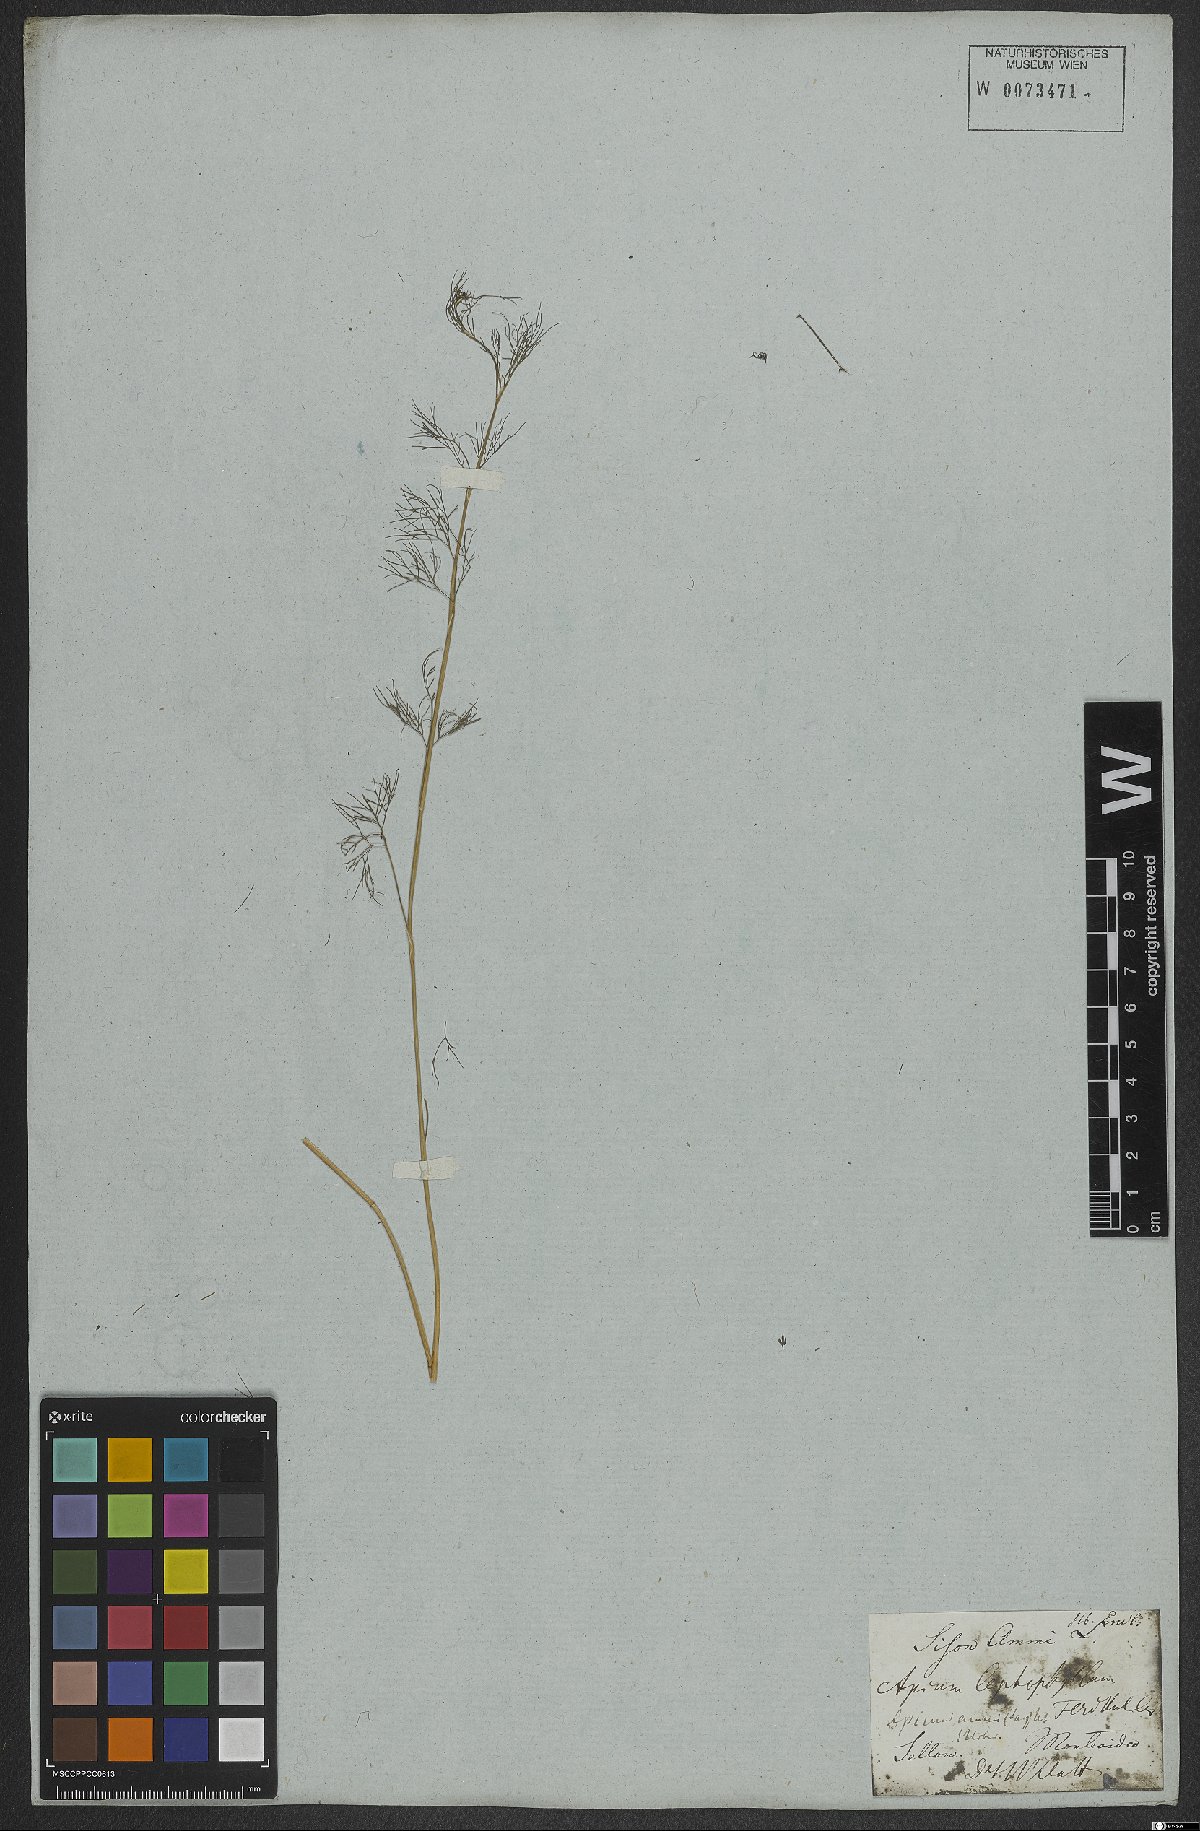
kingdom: Plantae
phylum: Tracheophyta
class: Magnoliopsida
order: Apiales
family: Apiaceae
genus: Cyclospermum
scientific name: Cyclospermum leptophyllum
